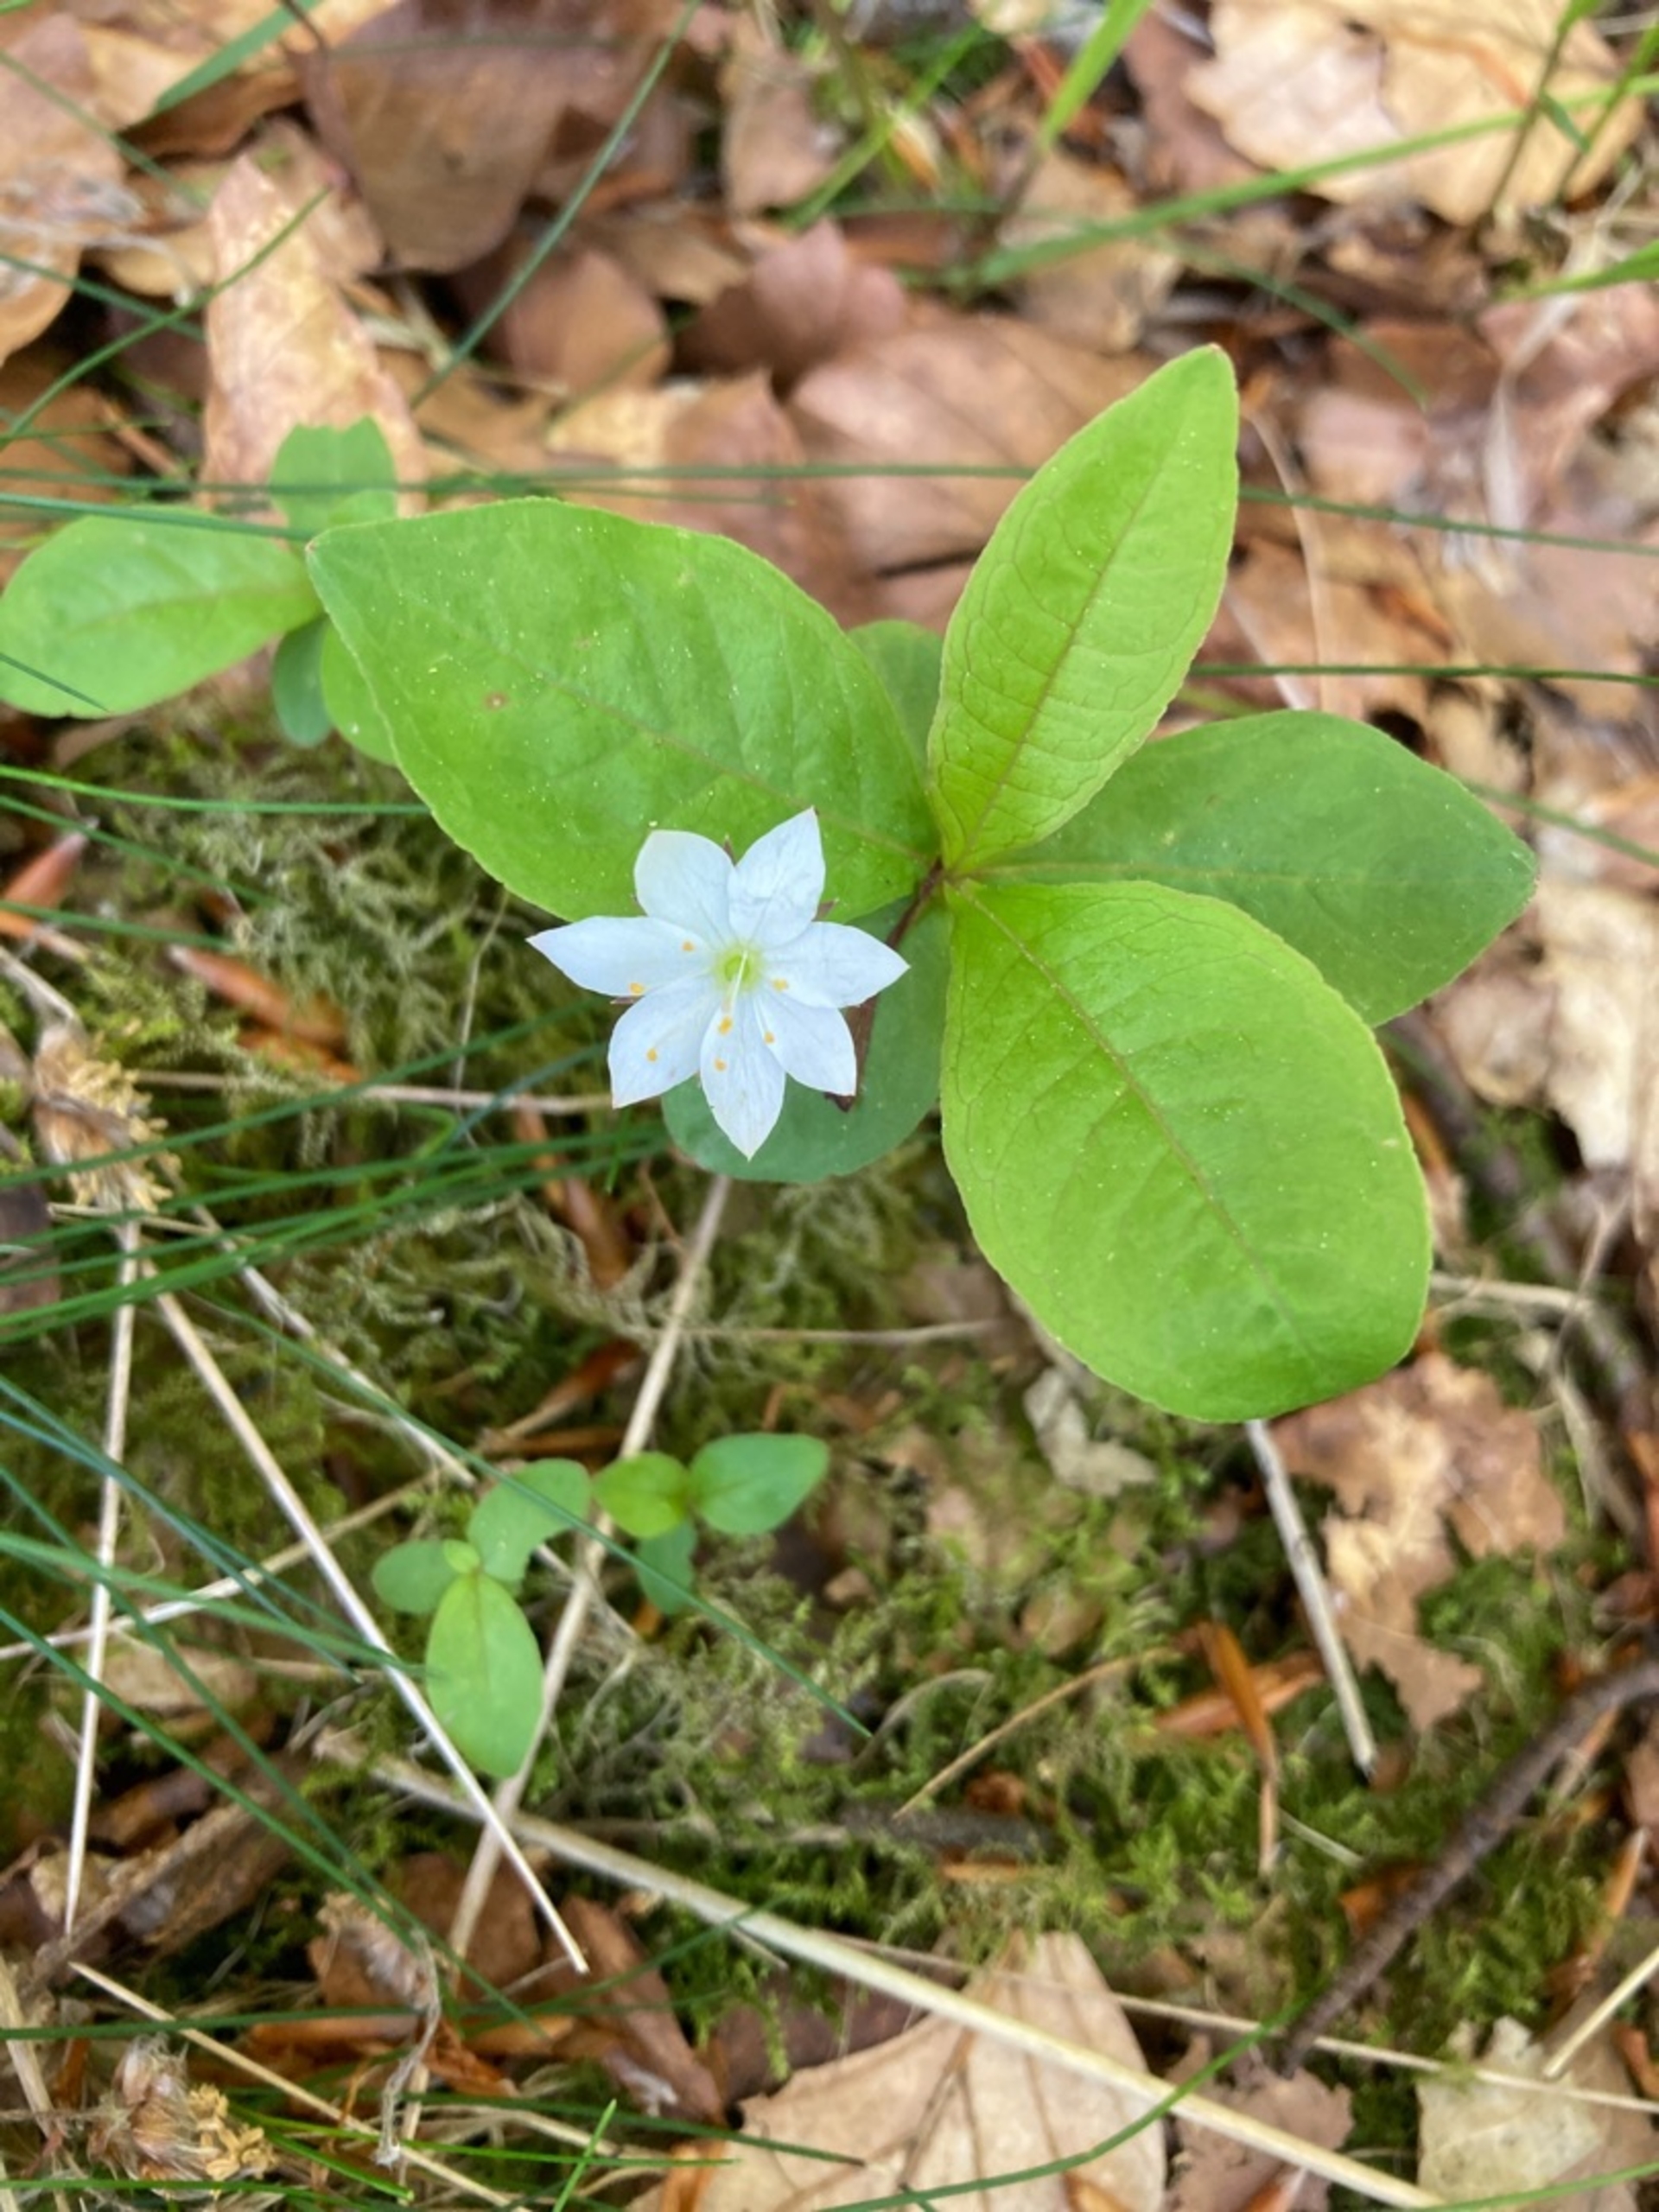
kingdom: Plantae
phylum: Tracheophyta
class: Magnoliopsida
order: Ericales
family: Primulaceae
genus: Lysimachia
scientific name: Lysimachia europaea
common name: Skovstjerne
